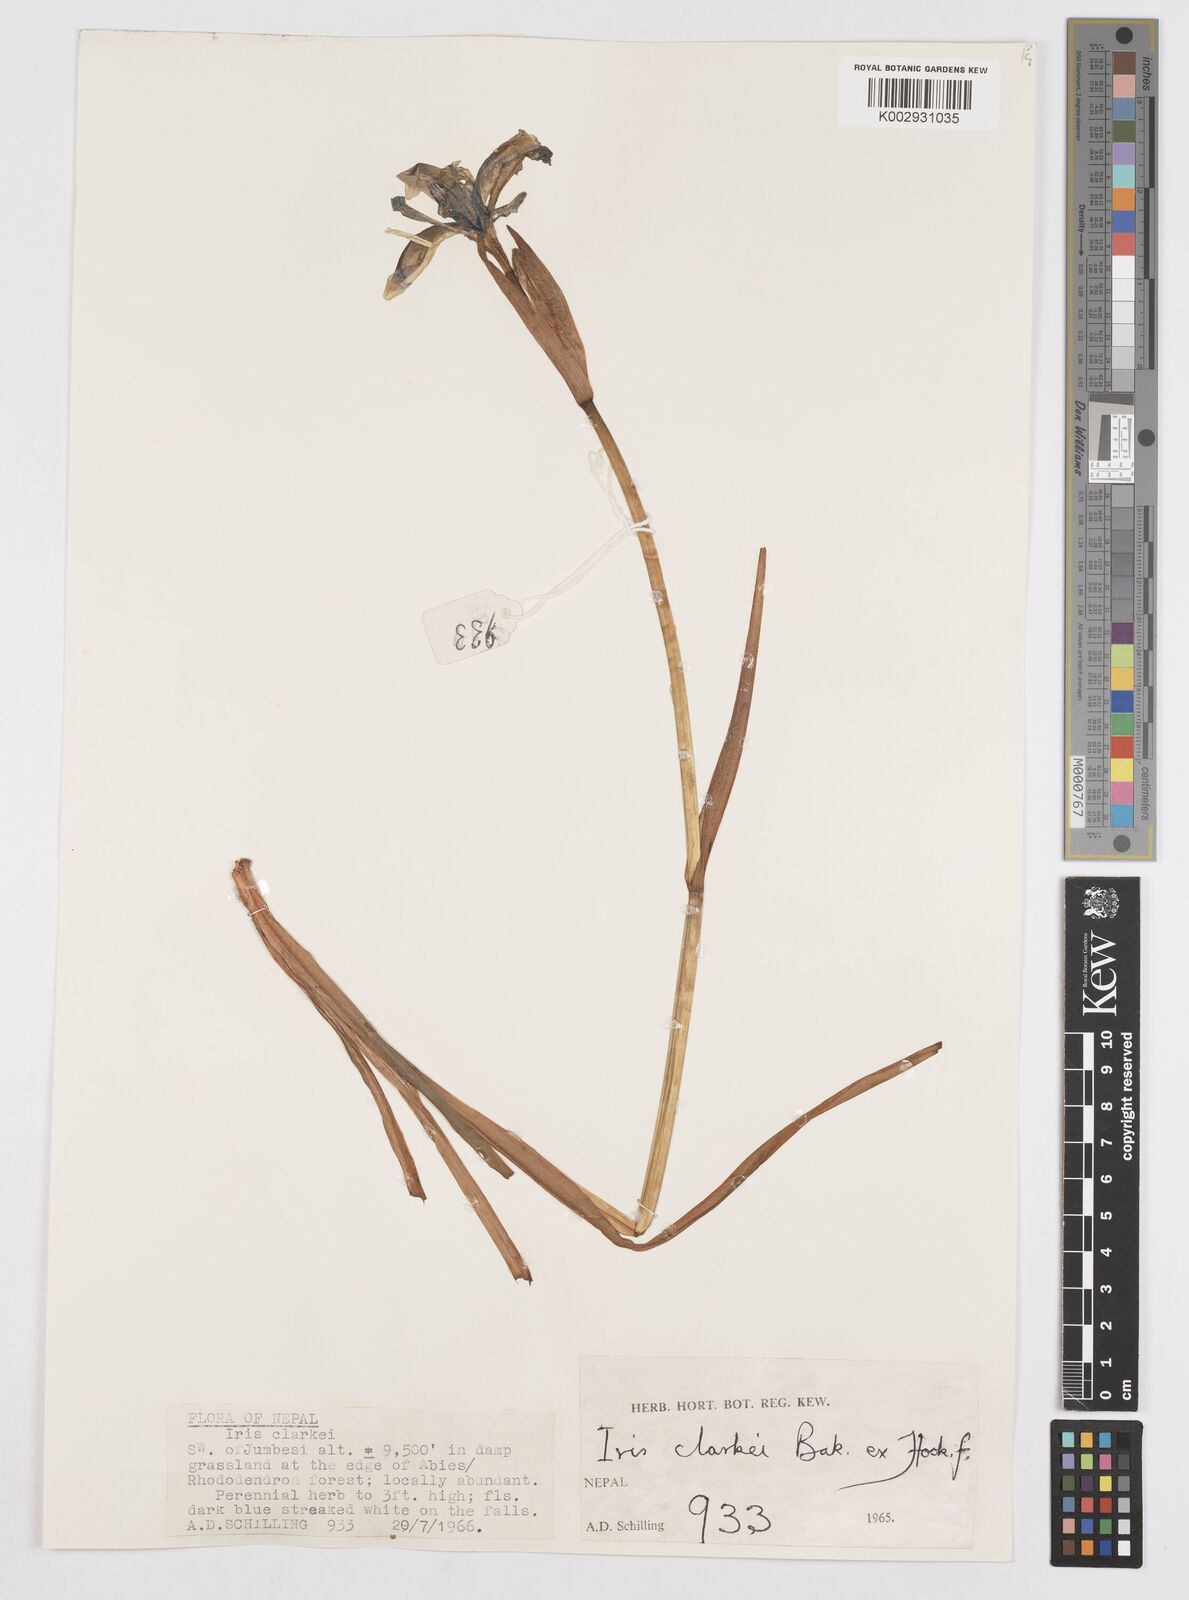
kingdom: Plantae
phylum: Tracheophyta
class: Liliopsida
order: Asparagales
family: Iridaceae
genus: Iris
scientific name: Iris clarkei
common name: Tibet iris
